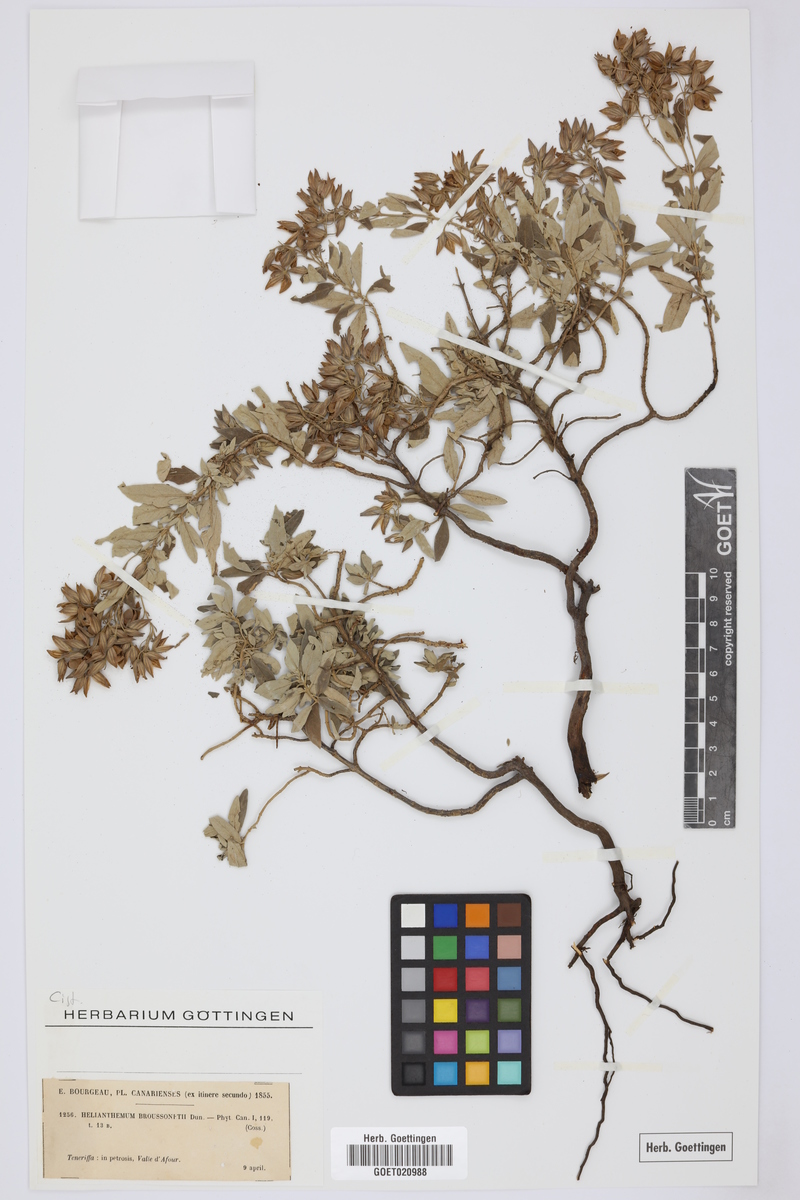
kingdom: Plantae
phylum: Tracheophyta
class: Magnoliopsida
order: Malvales
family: Cistaceae
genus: Helianthemum
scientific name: Helianthemum broussonetii
